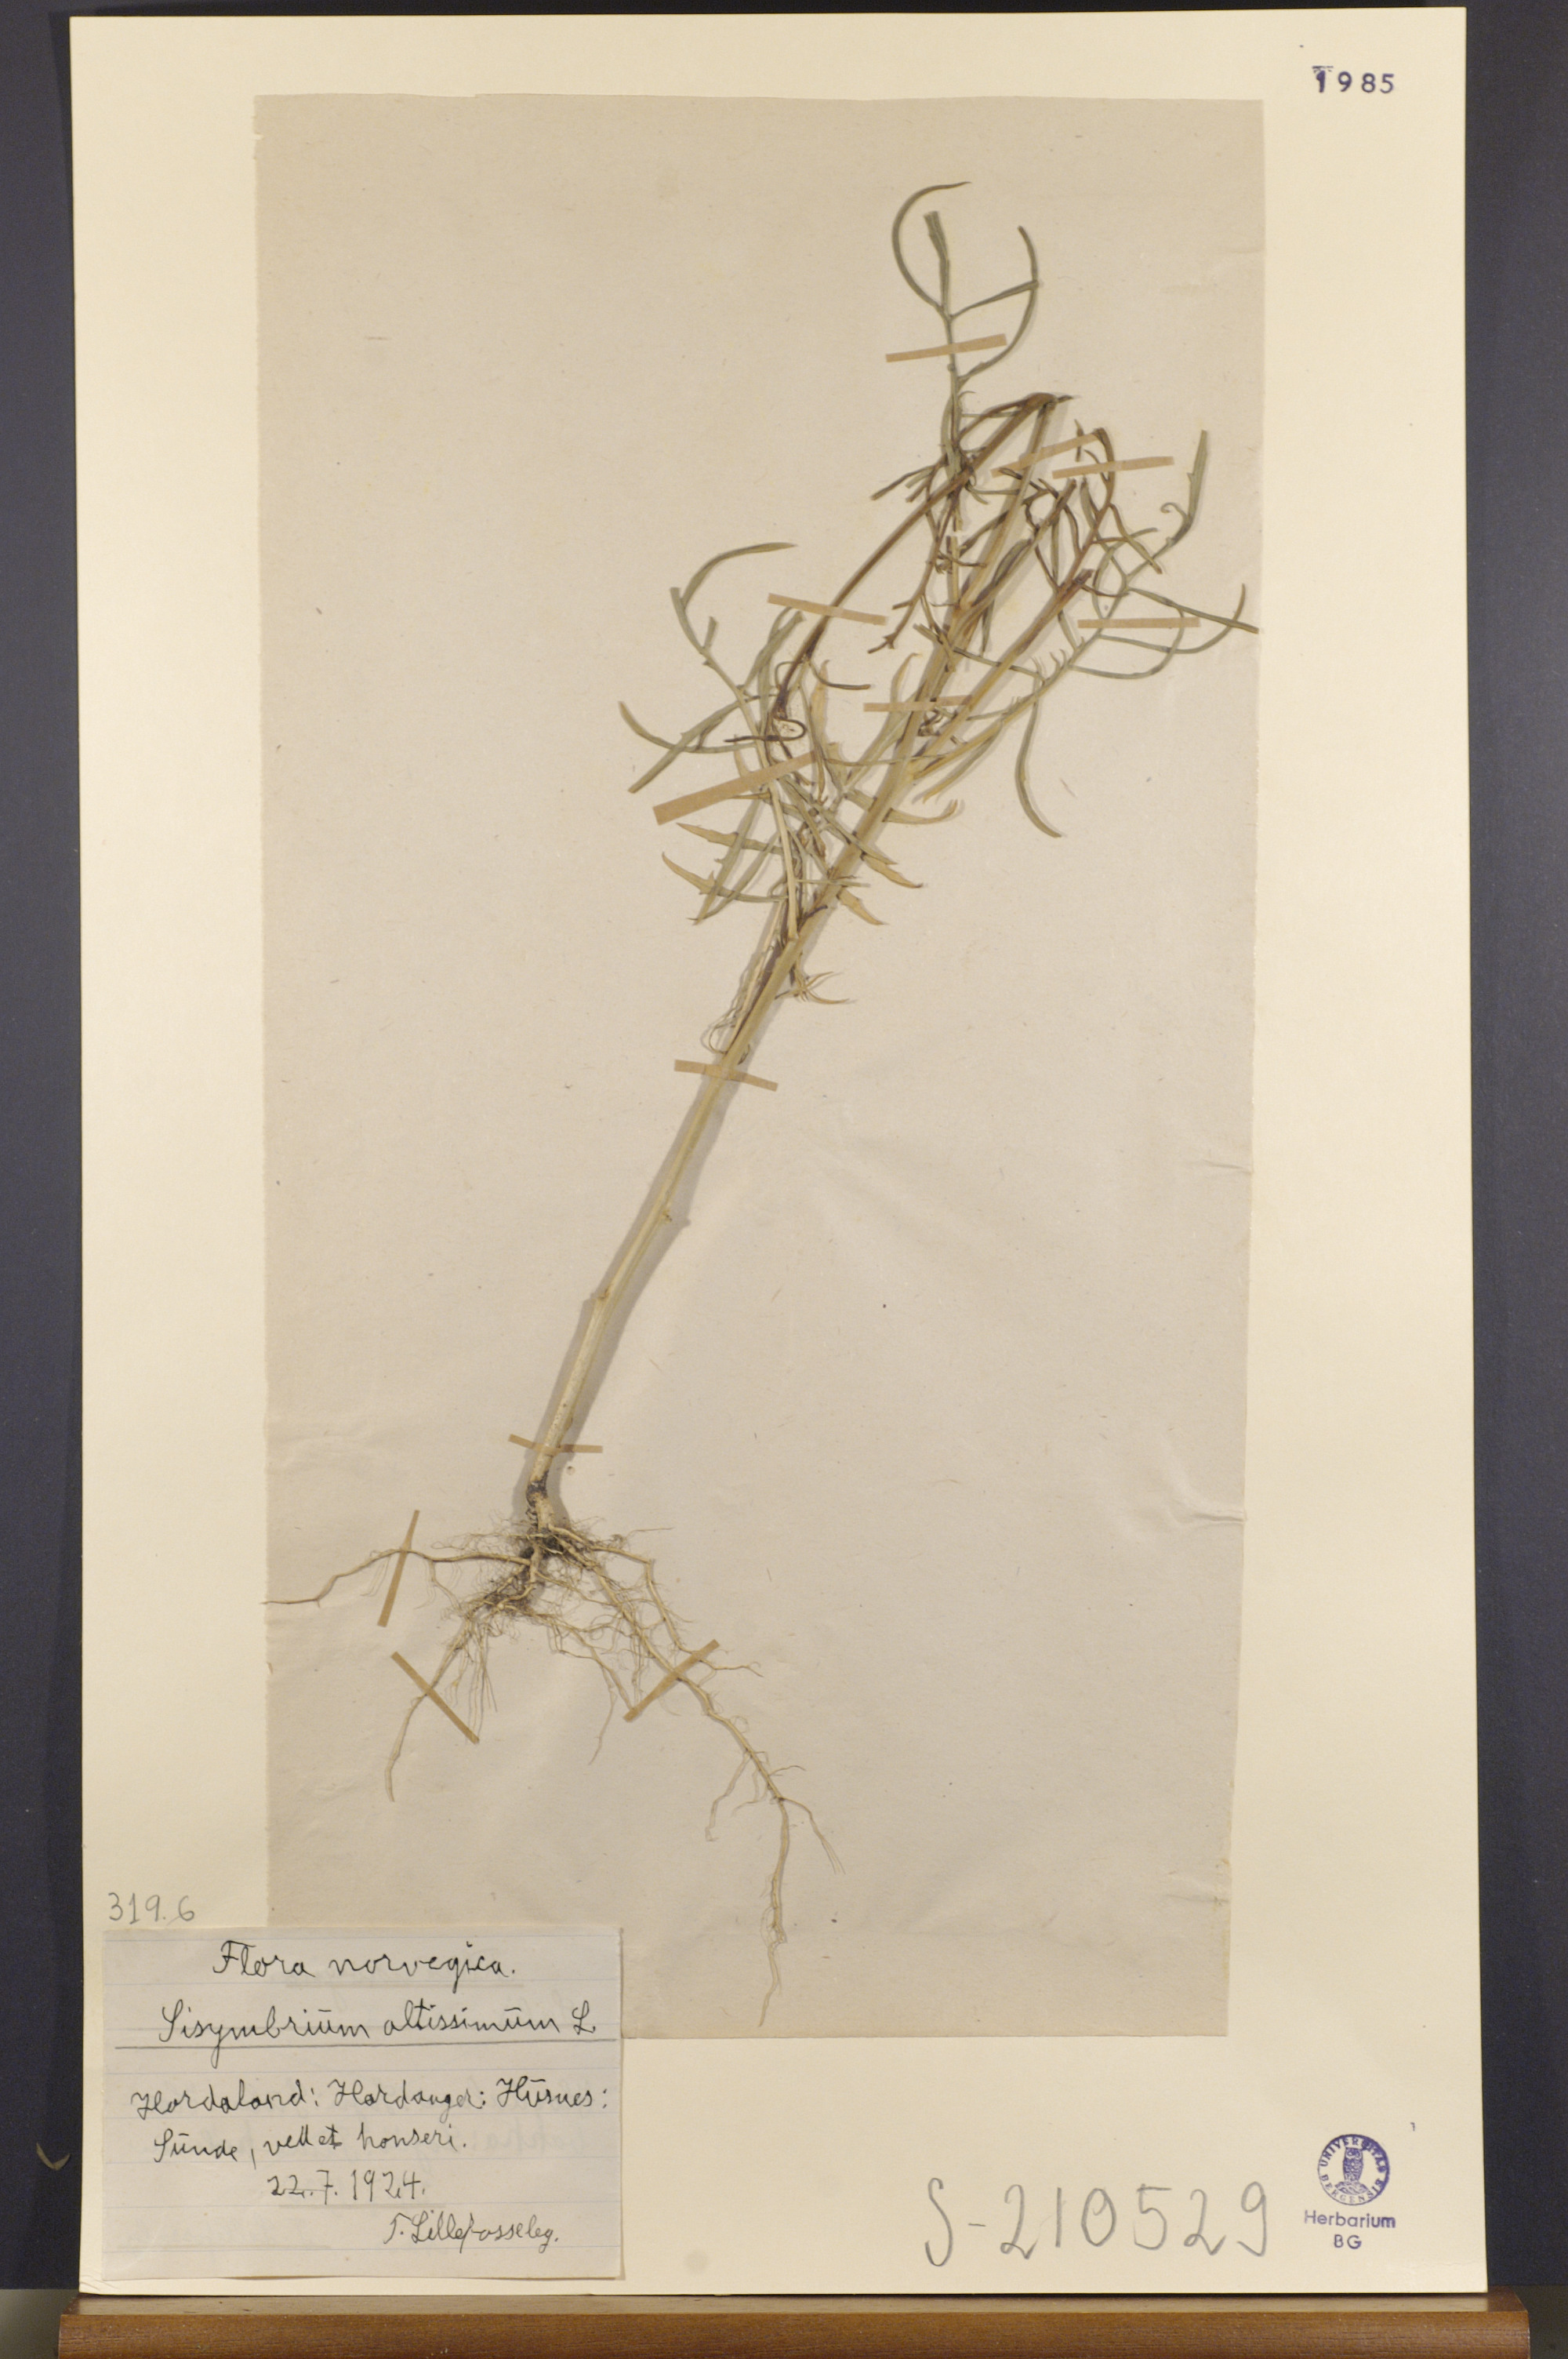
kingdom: Plantae
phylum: Tracheophyta
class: Magnoliopsida
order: Brassicales
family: Brassicaceae
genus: Sisymbrium
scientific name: Sisymbrium altissimum
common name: Tall rocket
